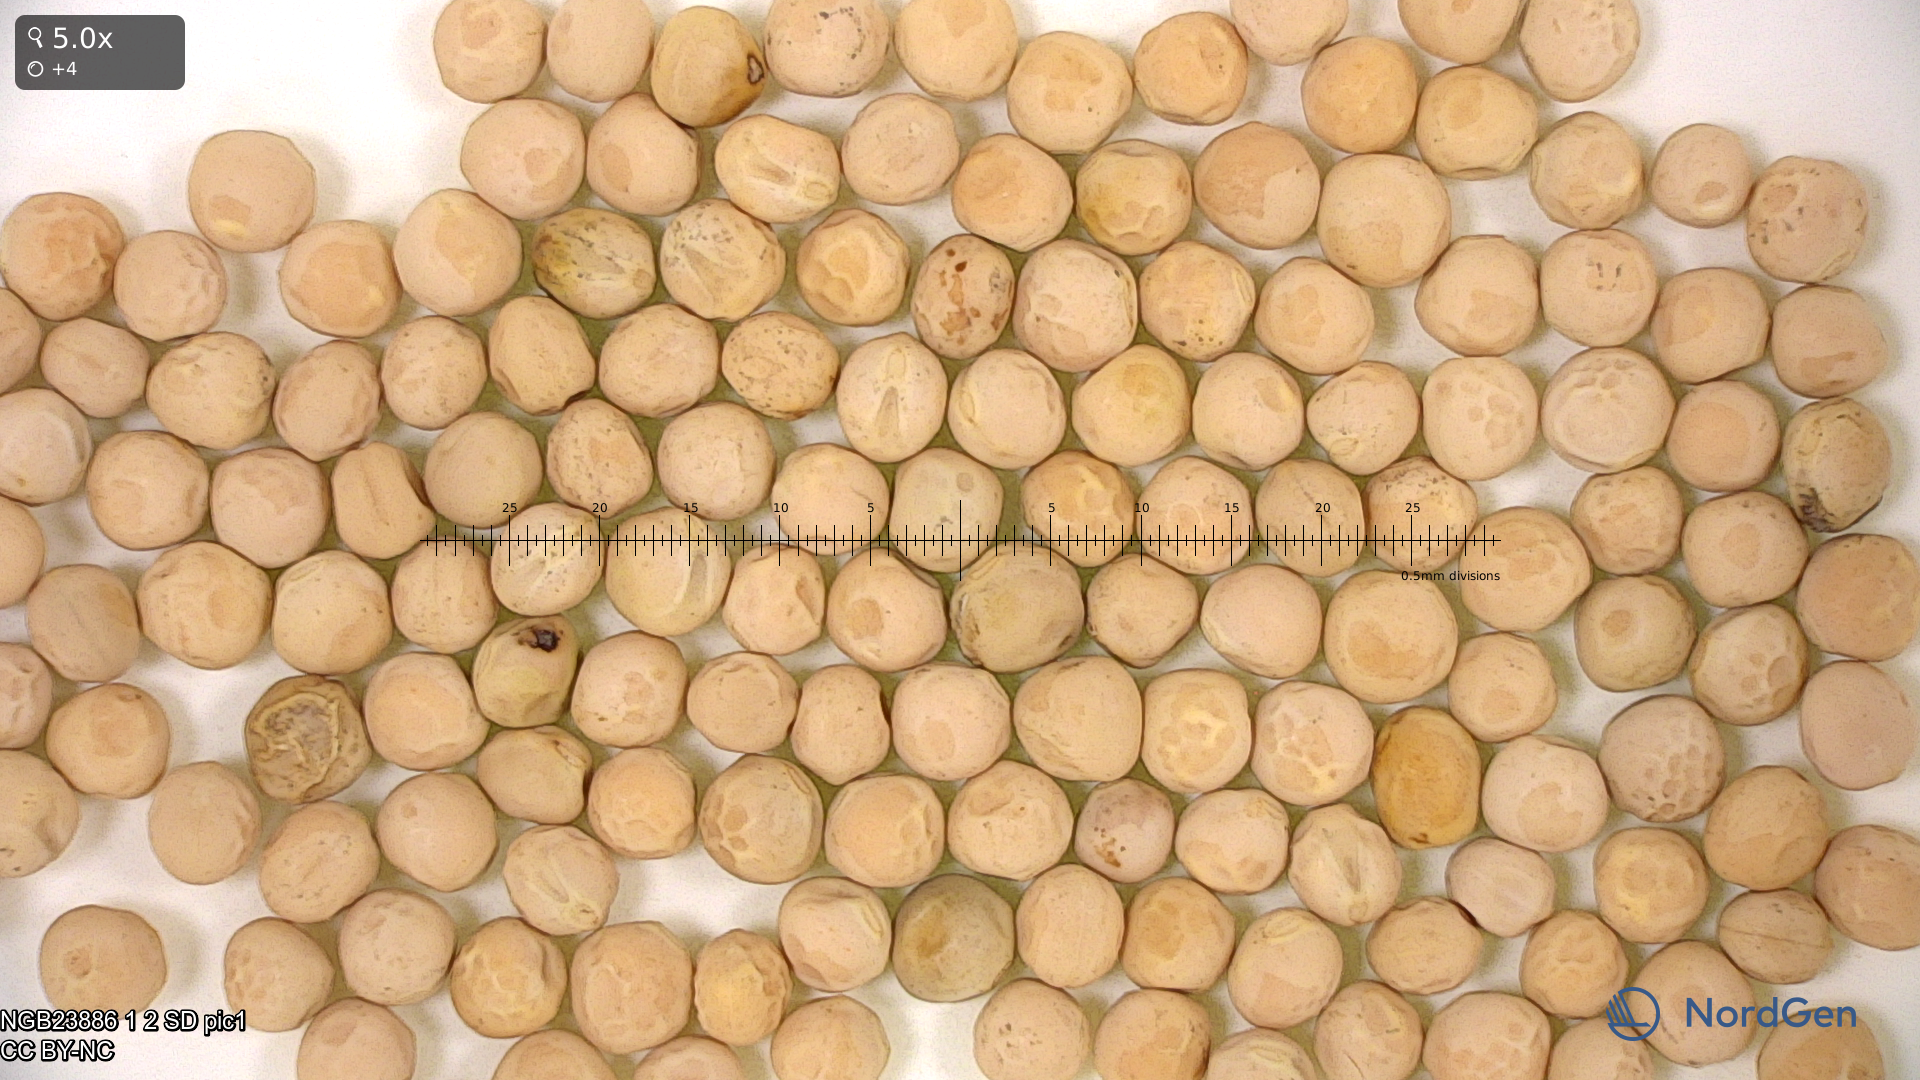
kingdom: Plantae
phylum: Tracheophyta
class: Magnoliopsida
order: Fabales
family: Fabaceae
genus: Lathyrus
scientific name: Lathyrus oleraceus
